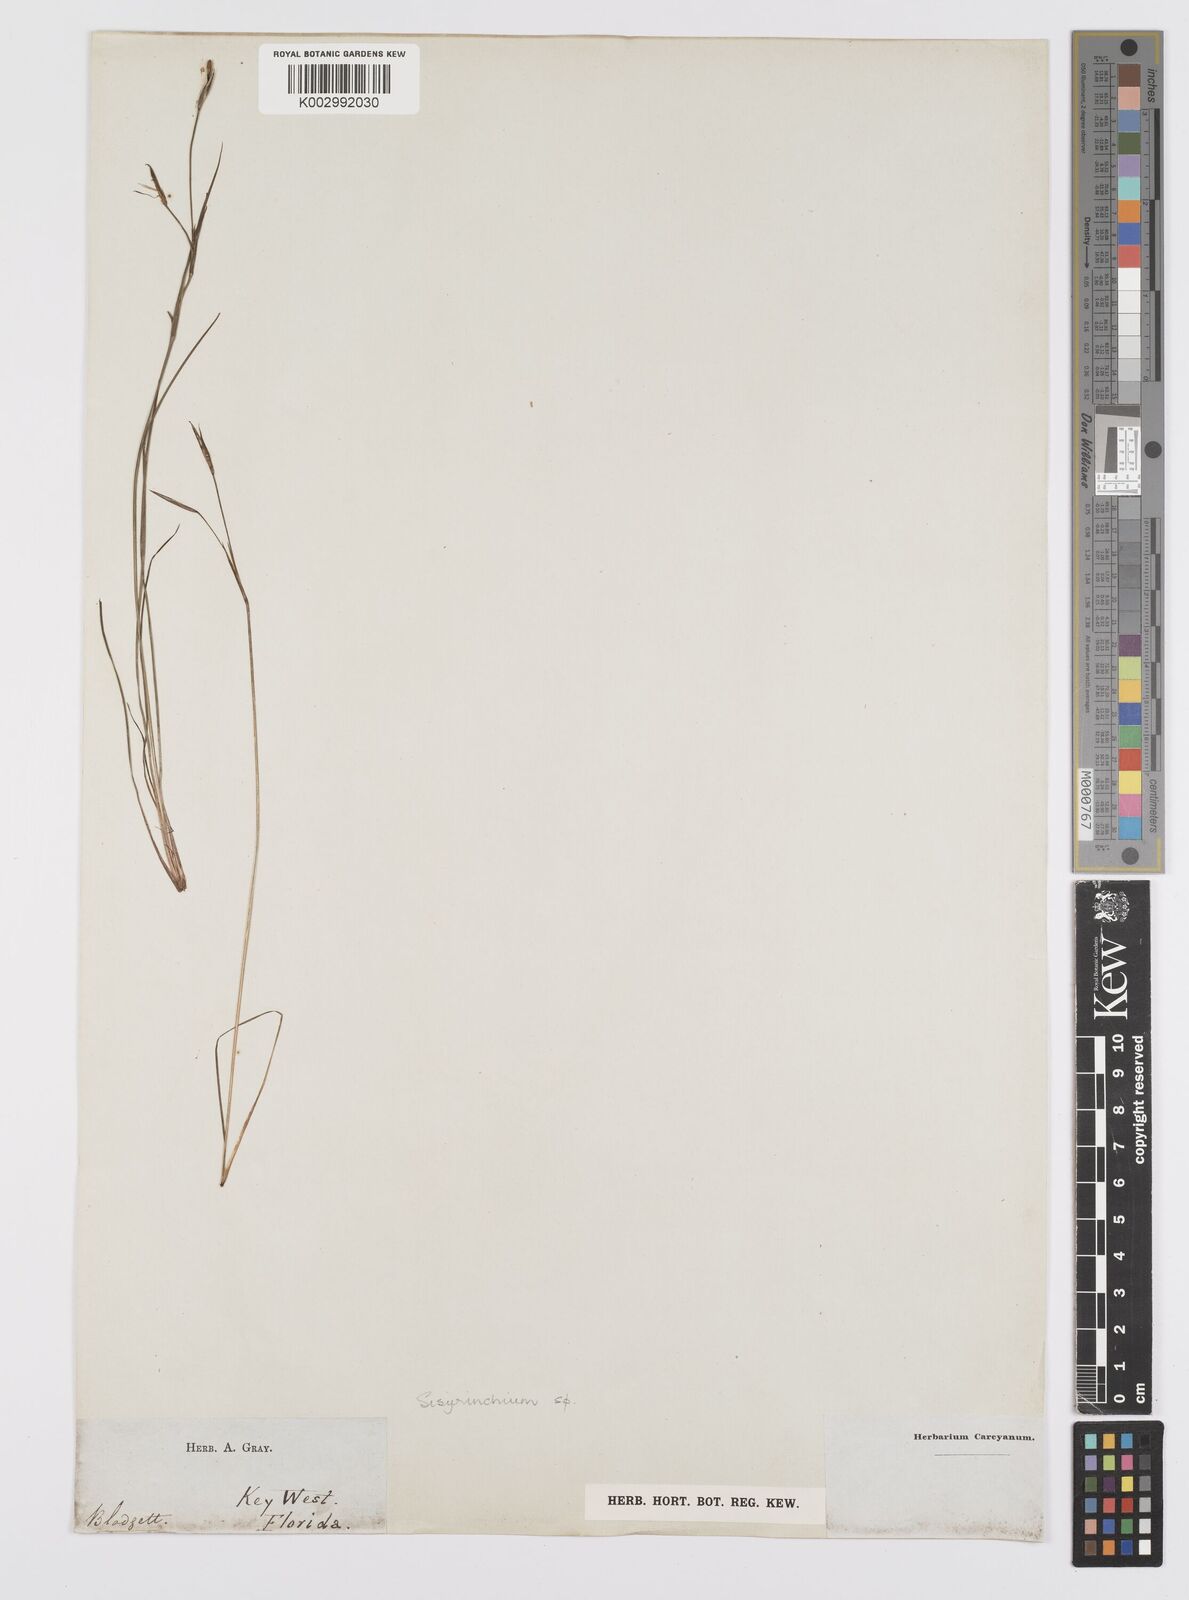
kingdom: Plantae
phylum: Tracheophyta
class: Liliopsida
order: Asparagales
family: Iridaceae
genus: Sisyrinchium
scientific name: Sisyrinchium
